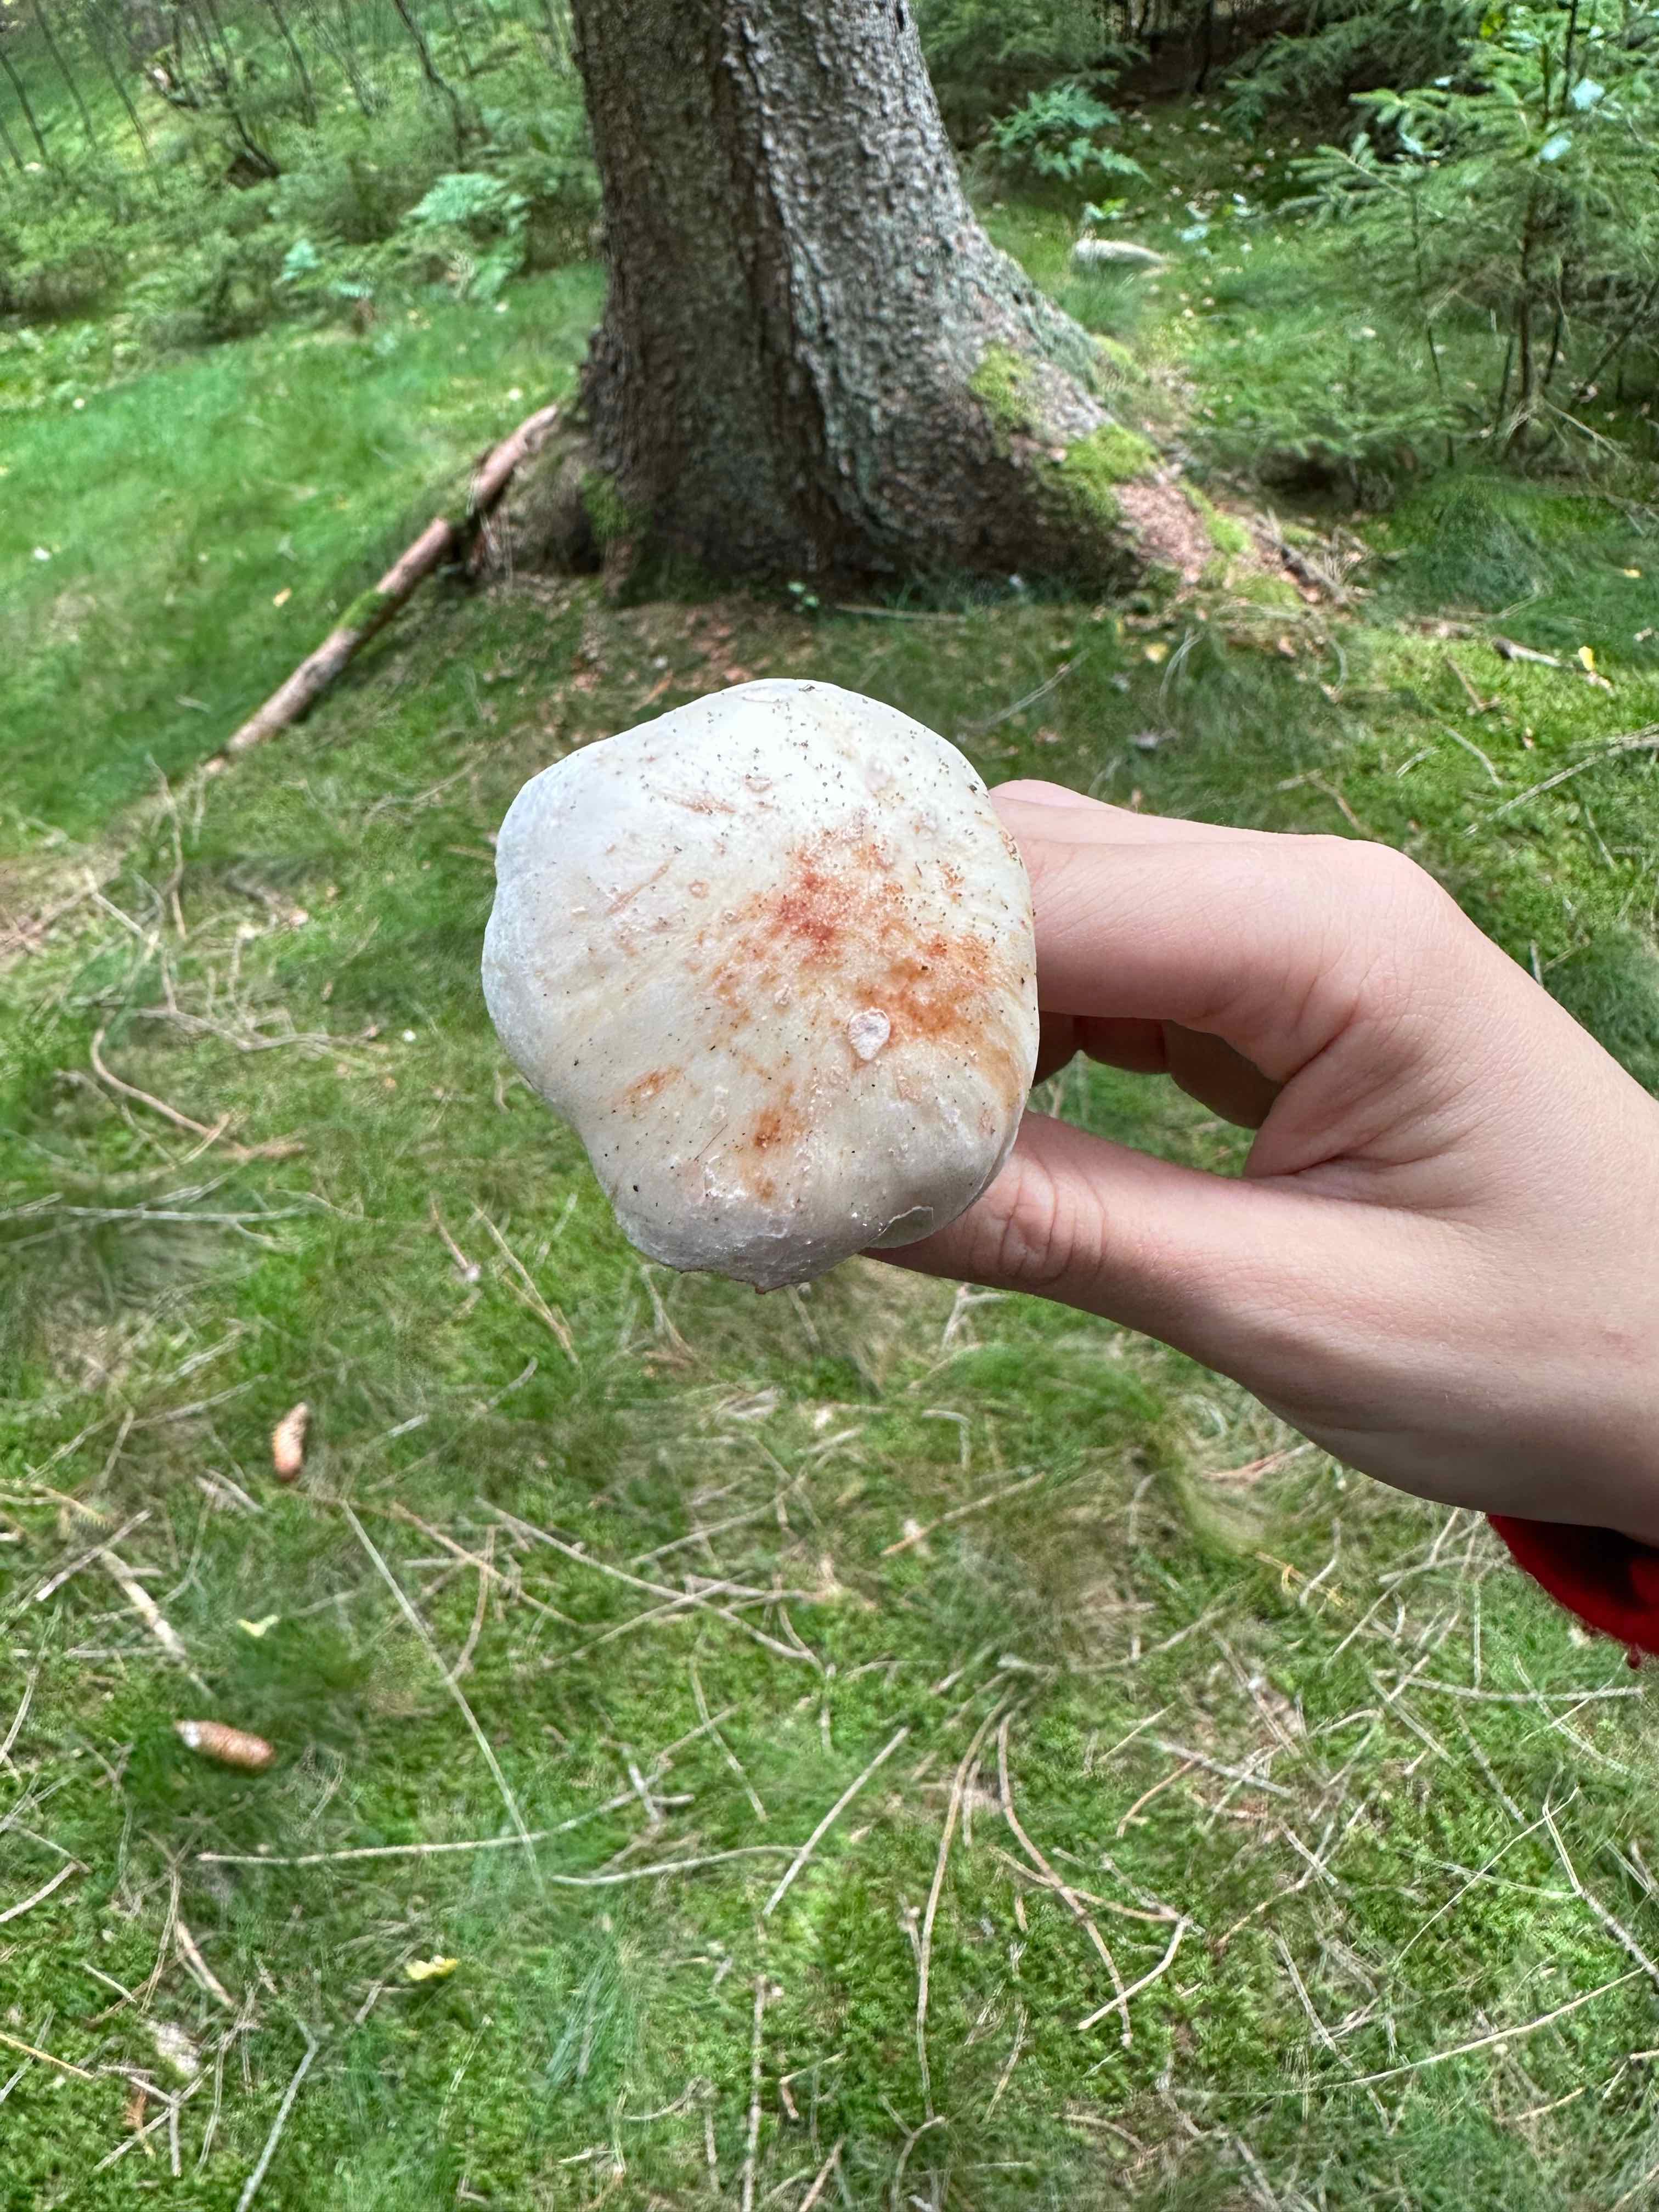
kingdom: Fungi
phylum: Basidiomycota
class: Agaricomycetes
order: Agaricales
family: Omphalotaceae
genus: Rhodocollybia
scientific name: Rhodocollybia maculata
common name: plettet fladhat
